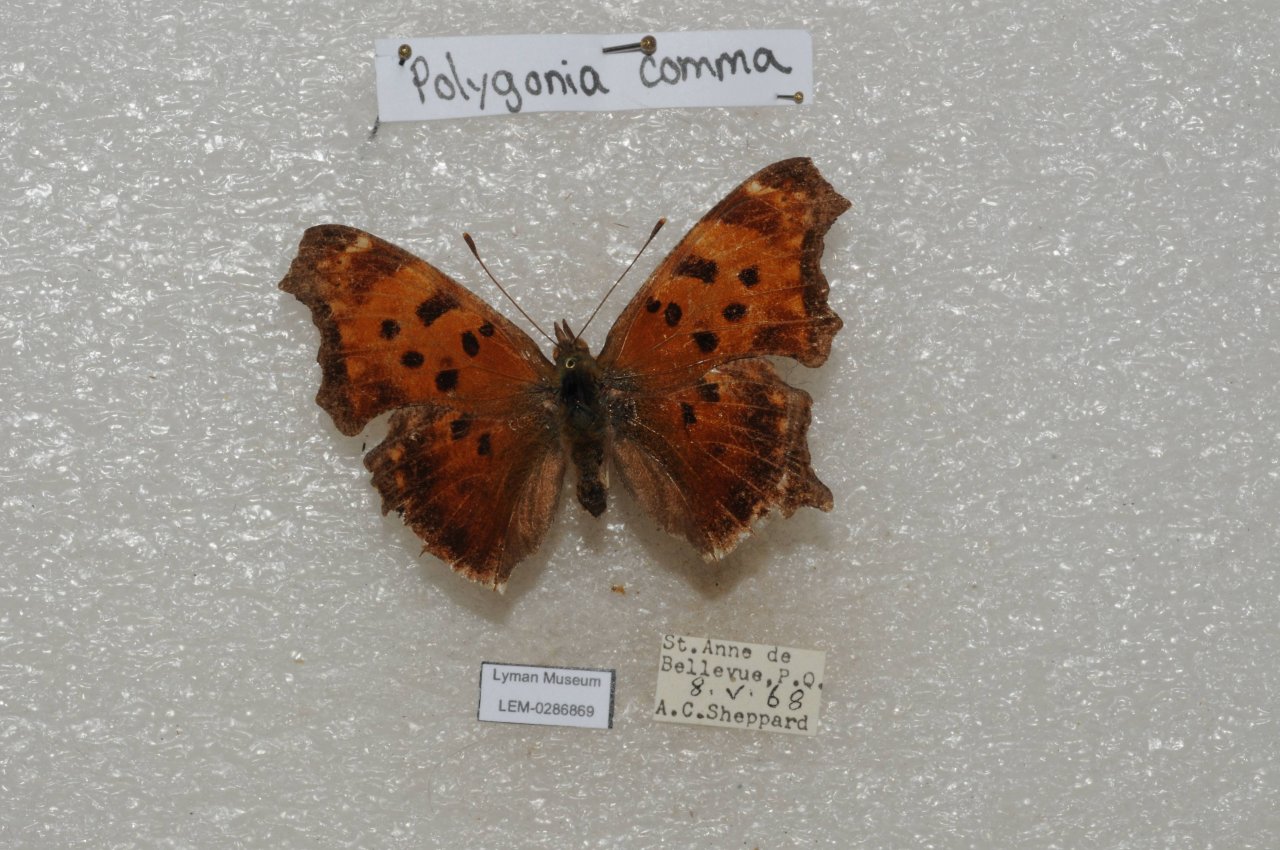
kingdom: Animalia
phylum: Arthropoda
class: Insecta
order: Lepidoptera
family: Nymphalidae
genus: Polygonia
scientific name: Polygonia comma
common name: Eastern Comma
